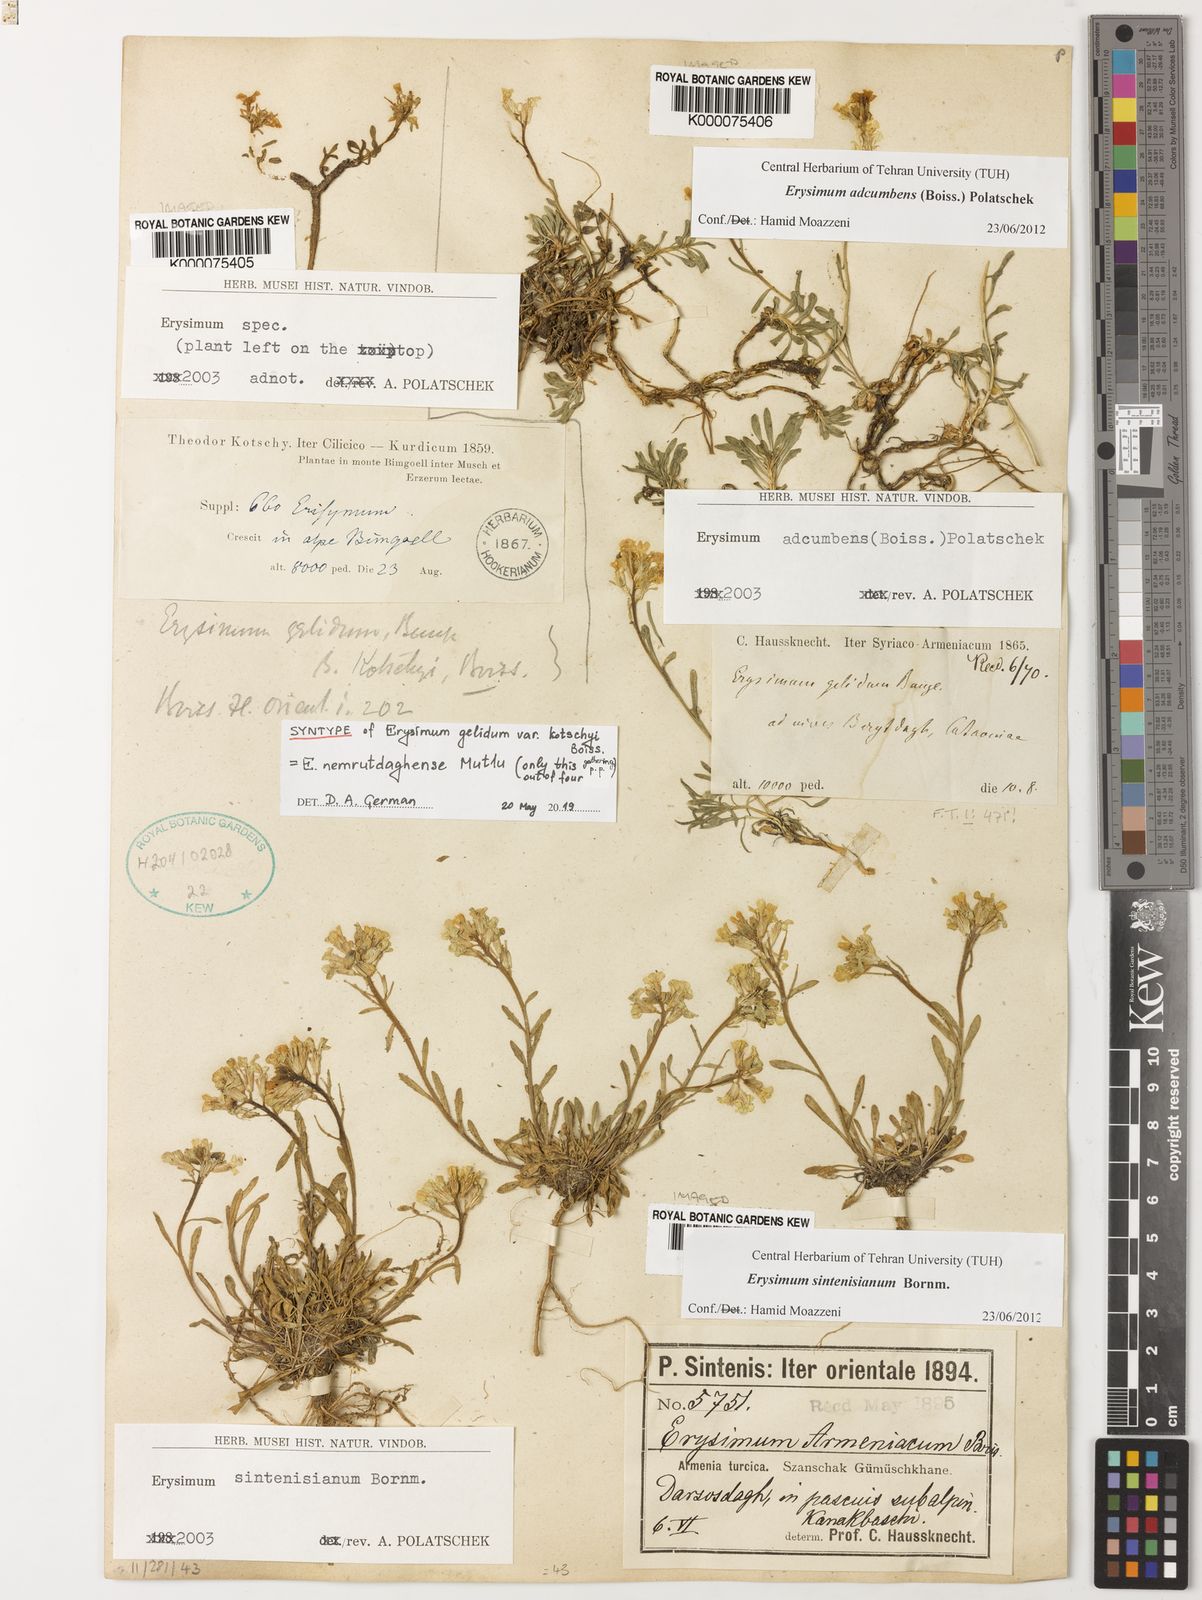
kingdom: Plantae
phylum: Tracheophyta
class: Magnoliopsida
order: Brassicales
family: Brassicaceae
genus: Erysimum
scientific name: Erysimum sintenisianum
